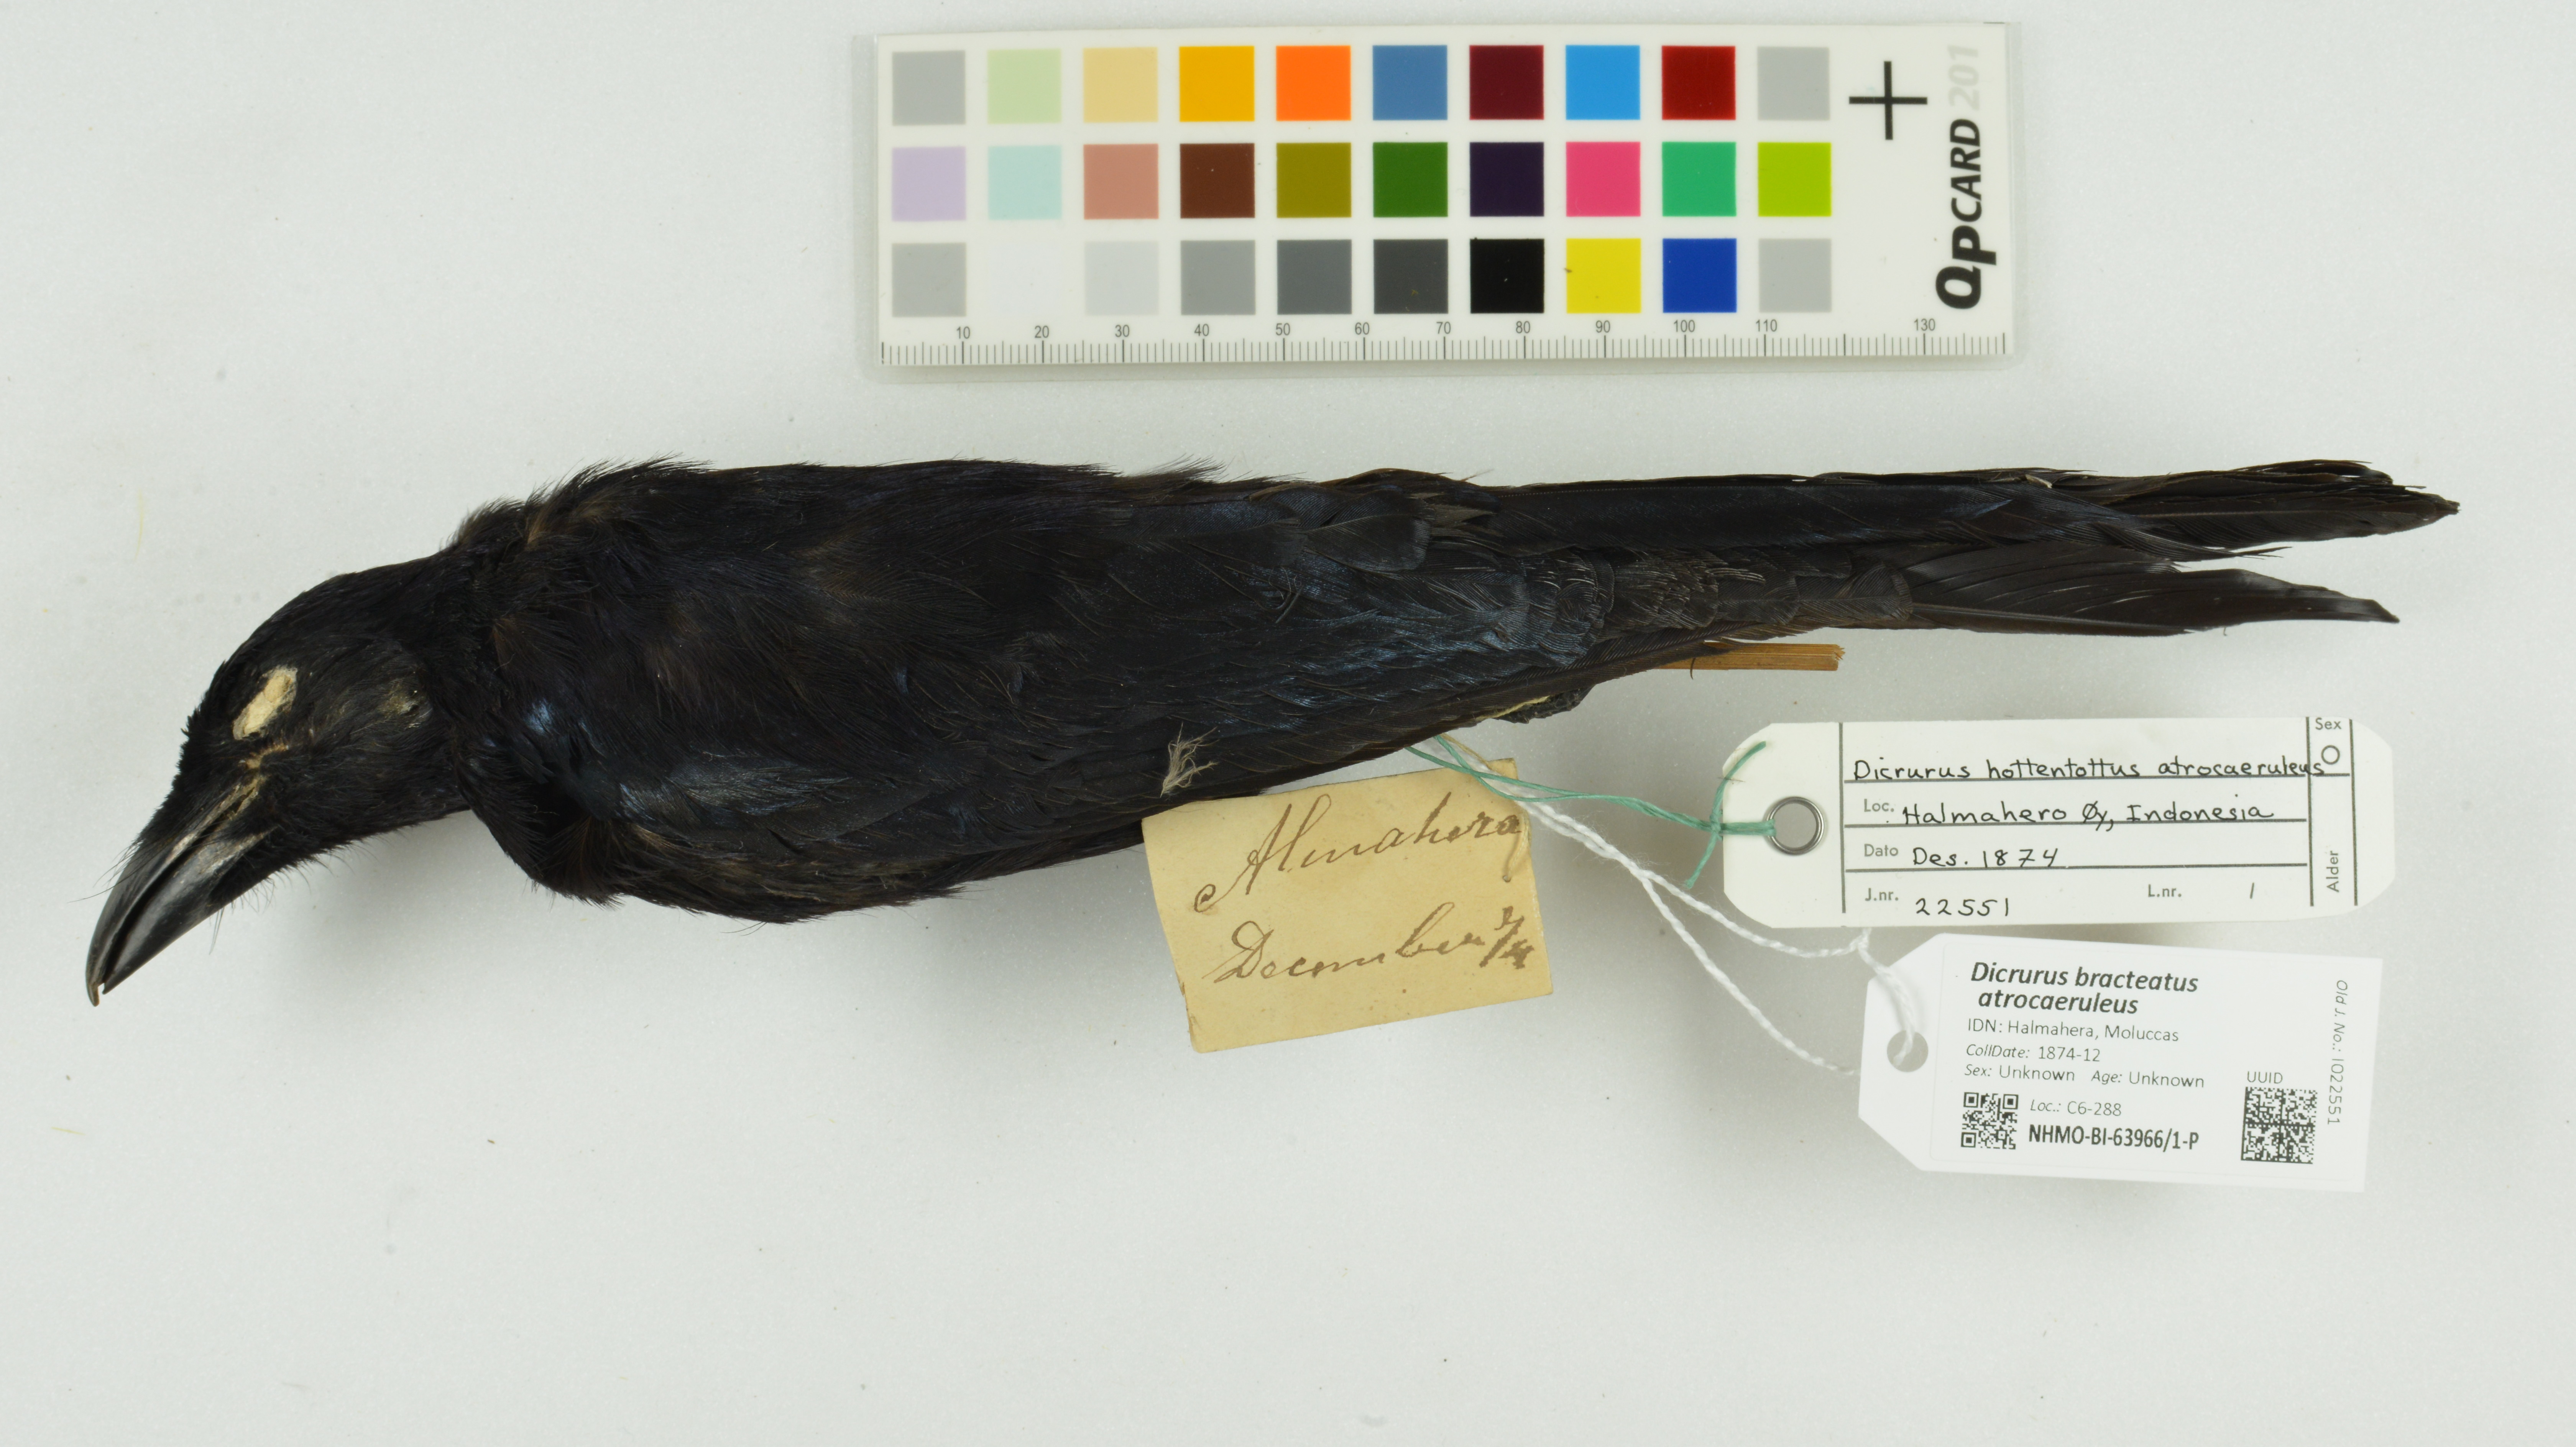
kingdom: Animalia
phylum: Chordata
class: Aves
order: Passeriformes
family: Dicruridae
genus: Dicrurus
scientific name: Dicrurus bracteatus
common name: Spangled drongo
